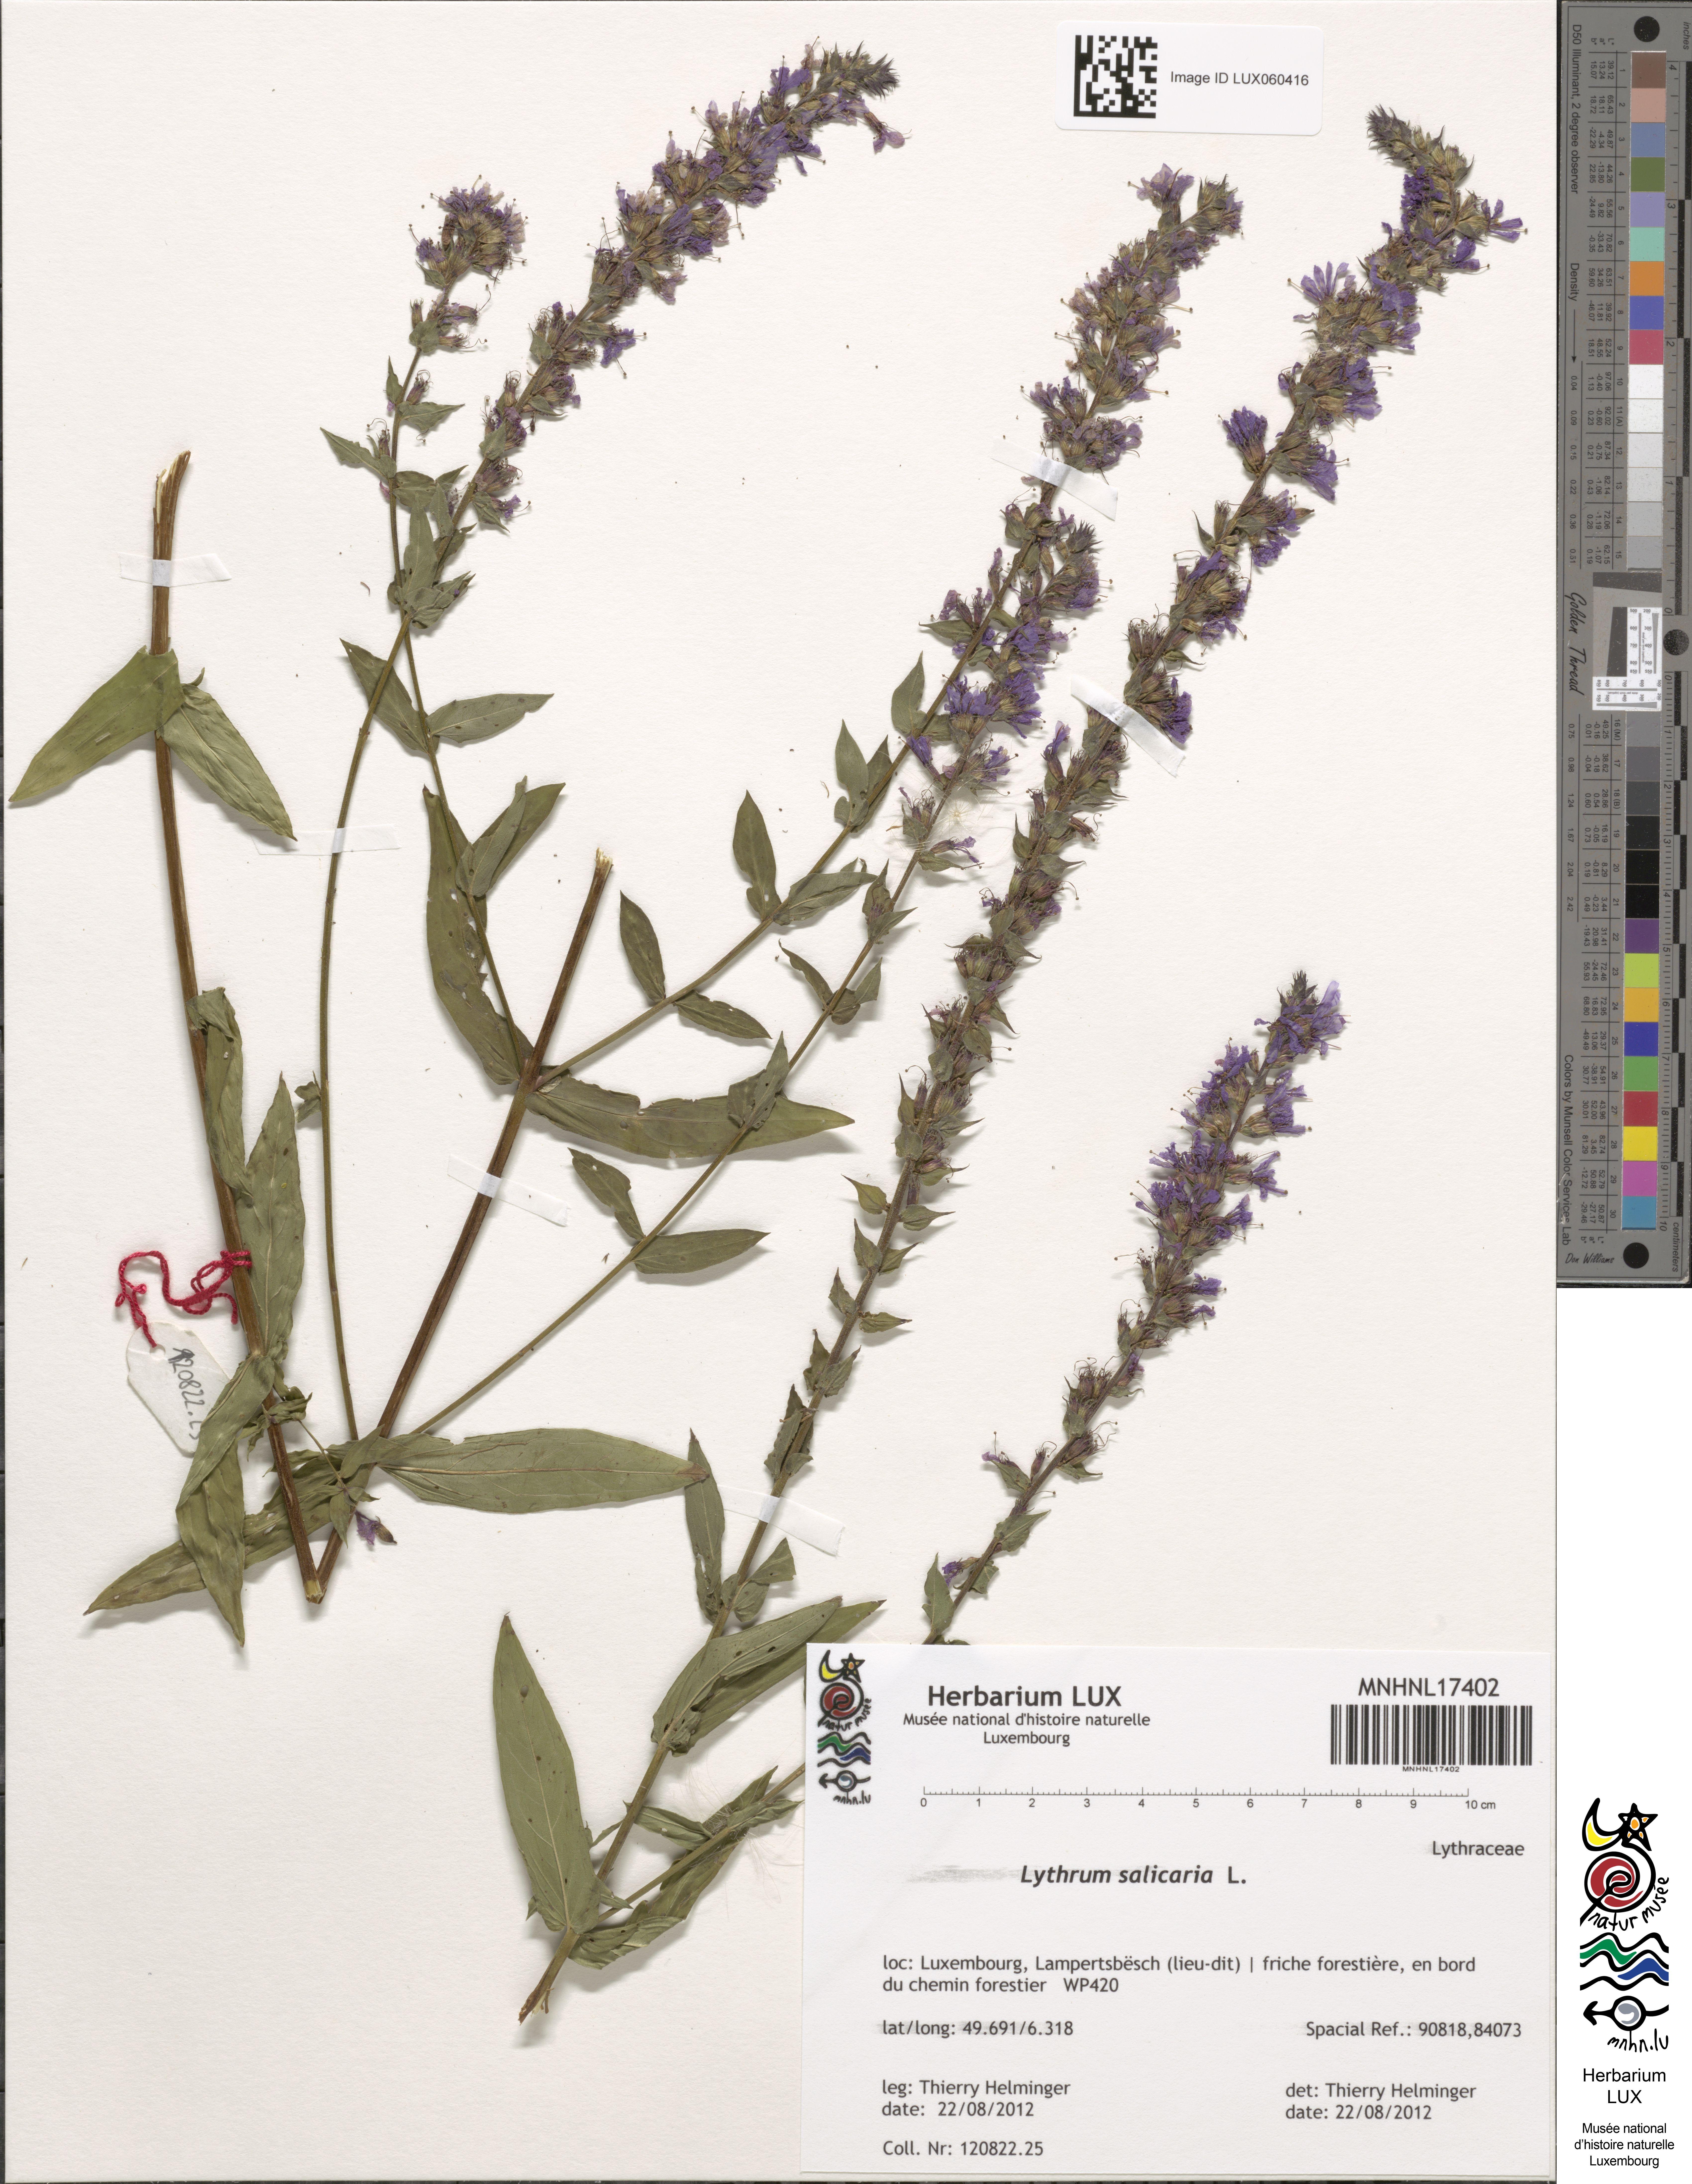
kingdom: Plantae
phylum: Tracheophyta
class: Magnoliopsida
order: Myrtales
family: Lythraceae
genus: Lythrum
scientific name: Lythrum salicaria
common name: Purple loosestrife
